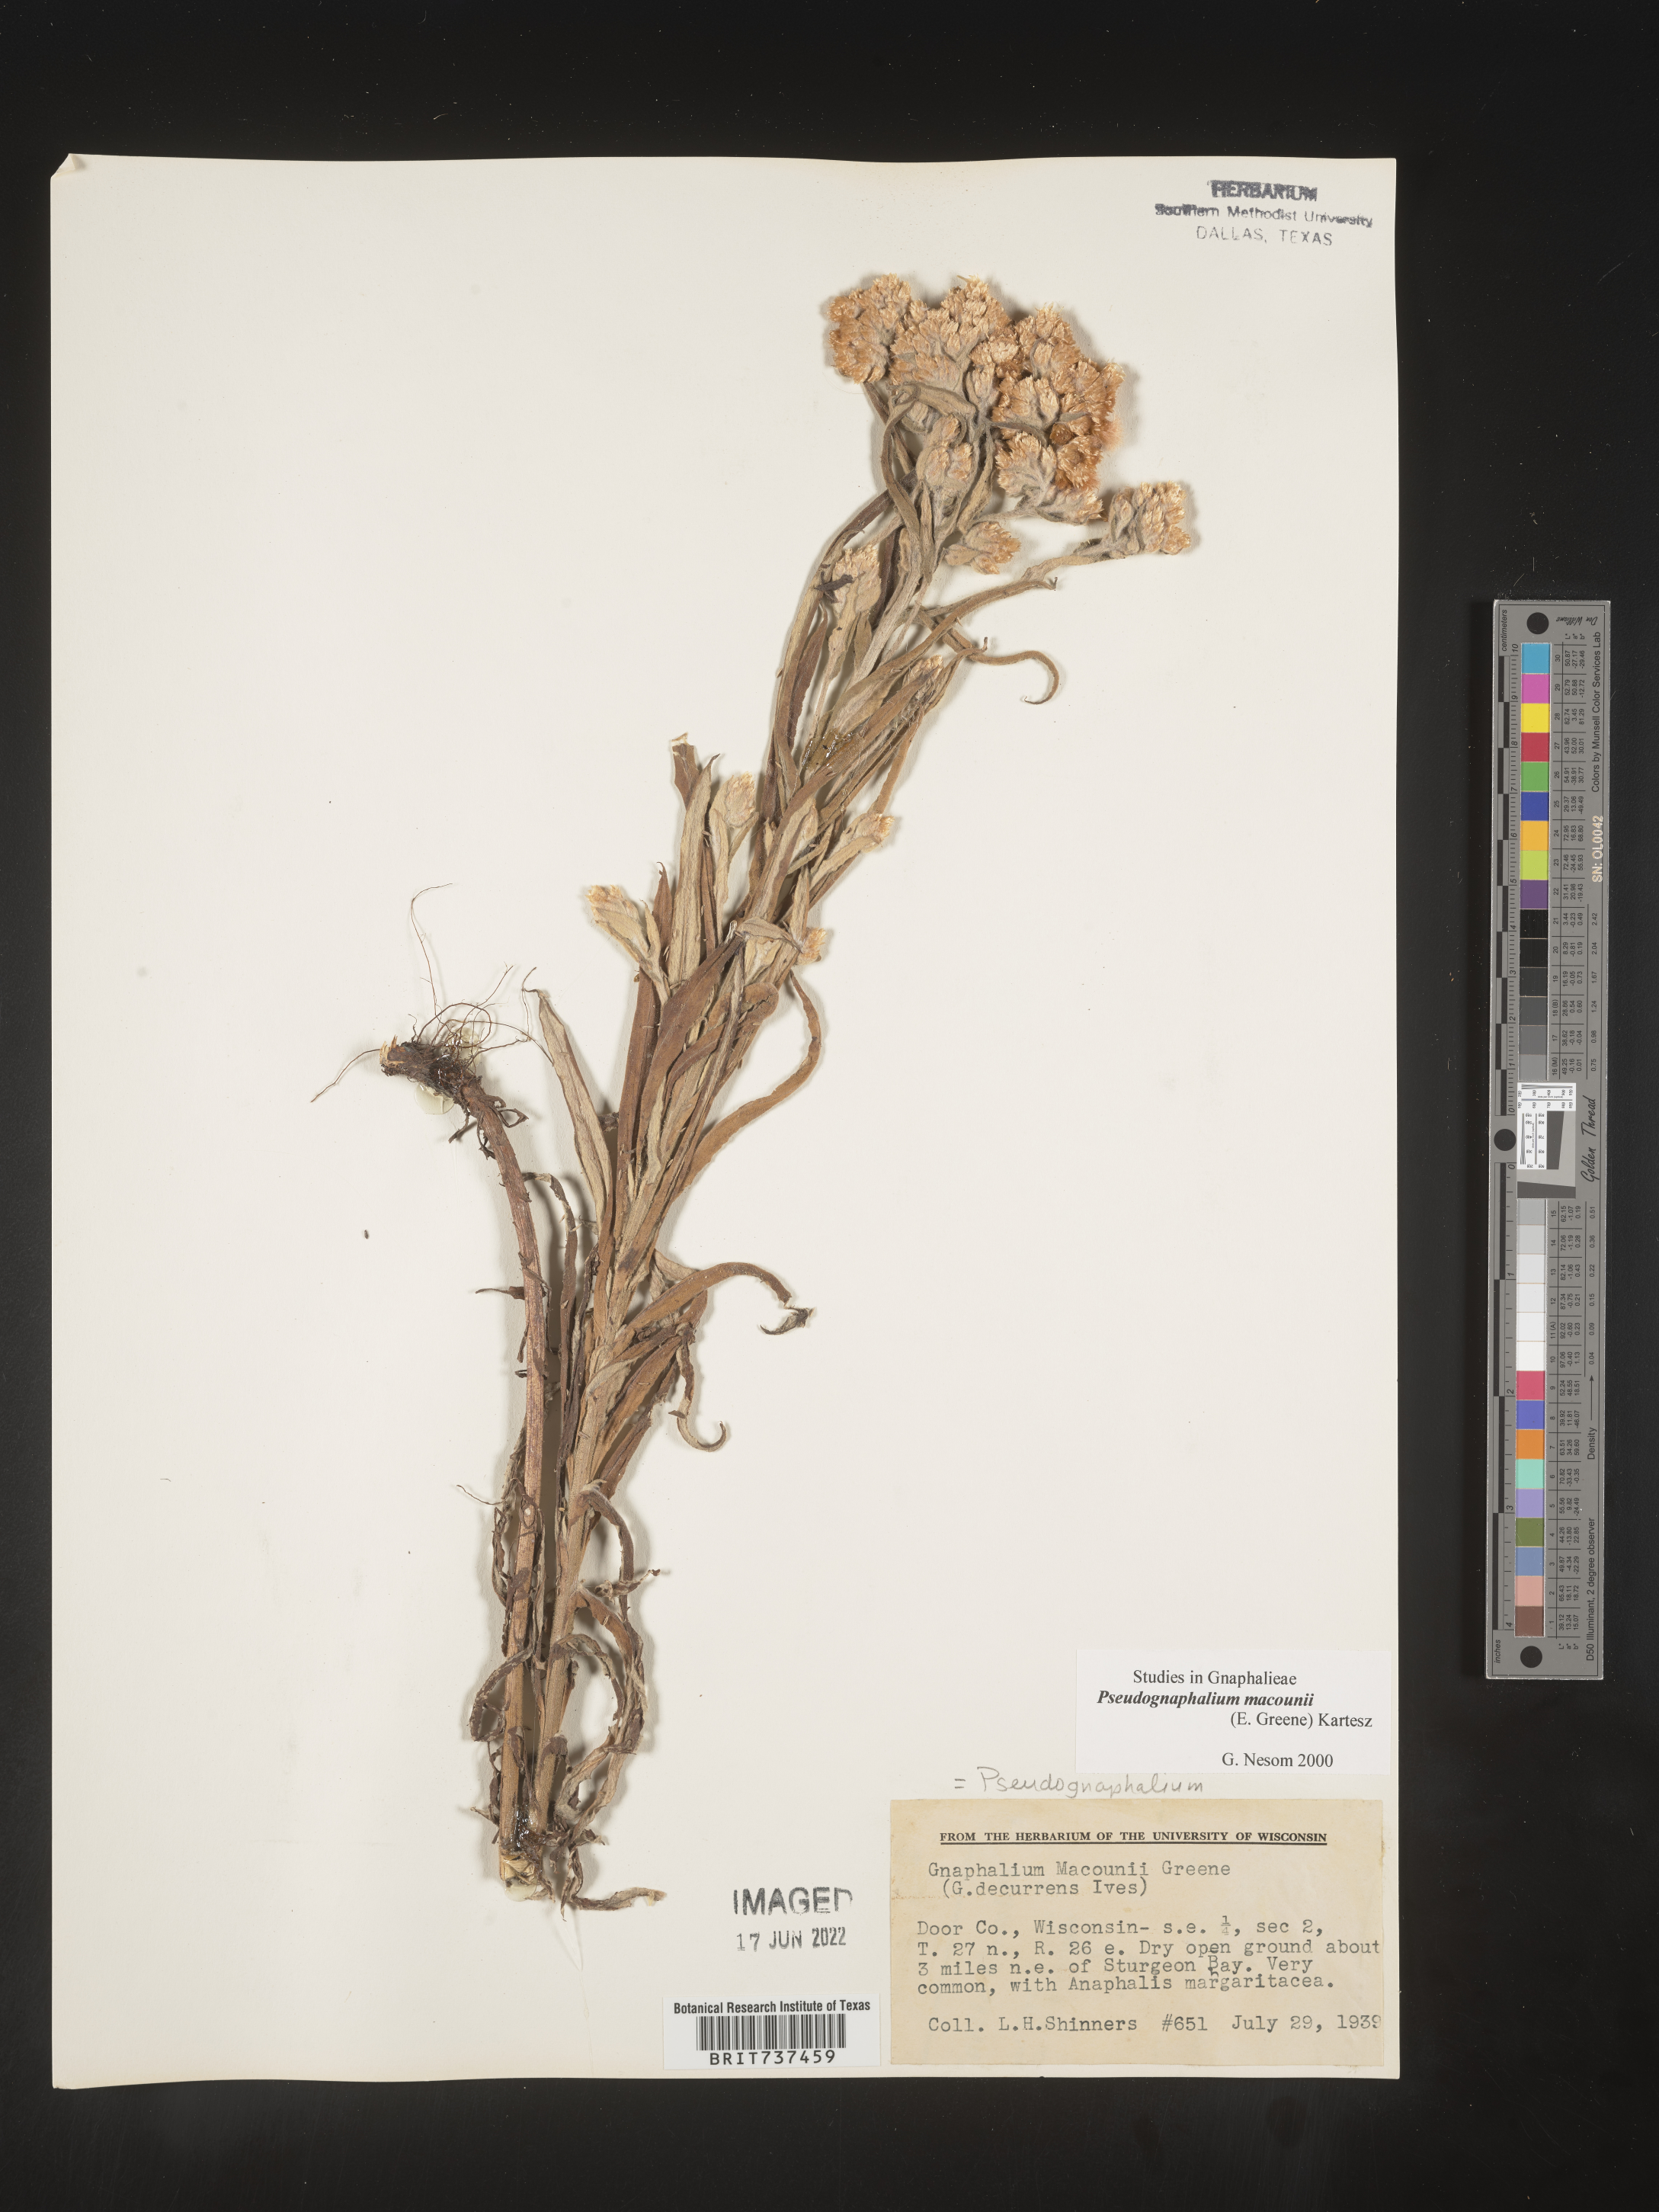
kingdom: Plantae
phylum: Tracheophyta
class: Magnoliopsida
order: Asterales
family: Asteraceae
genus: Pseudognaphalium
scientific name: Pseudognaphalium macounii
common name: Clammy cudweed
